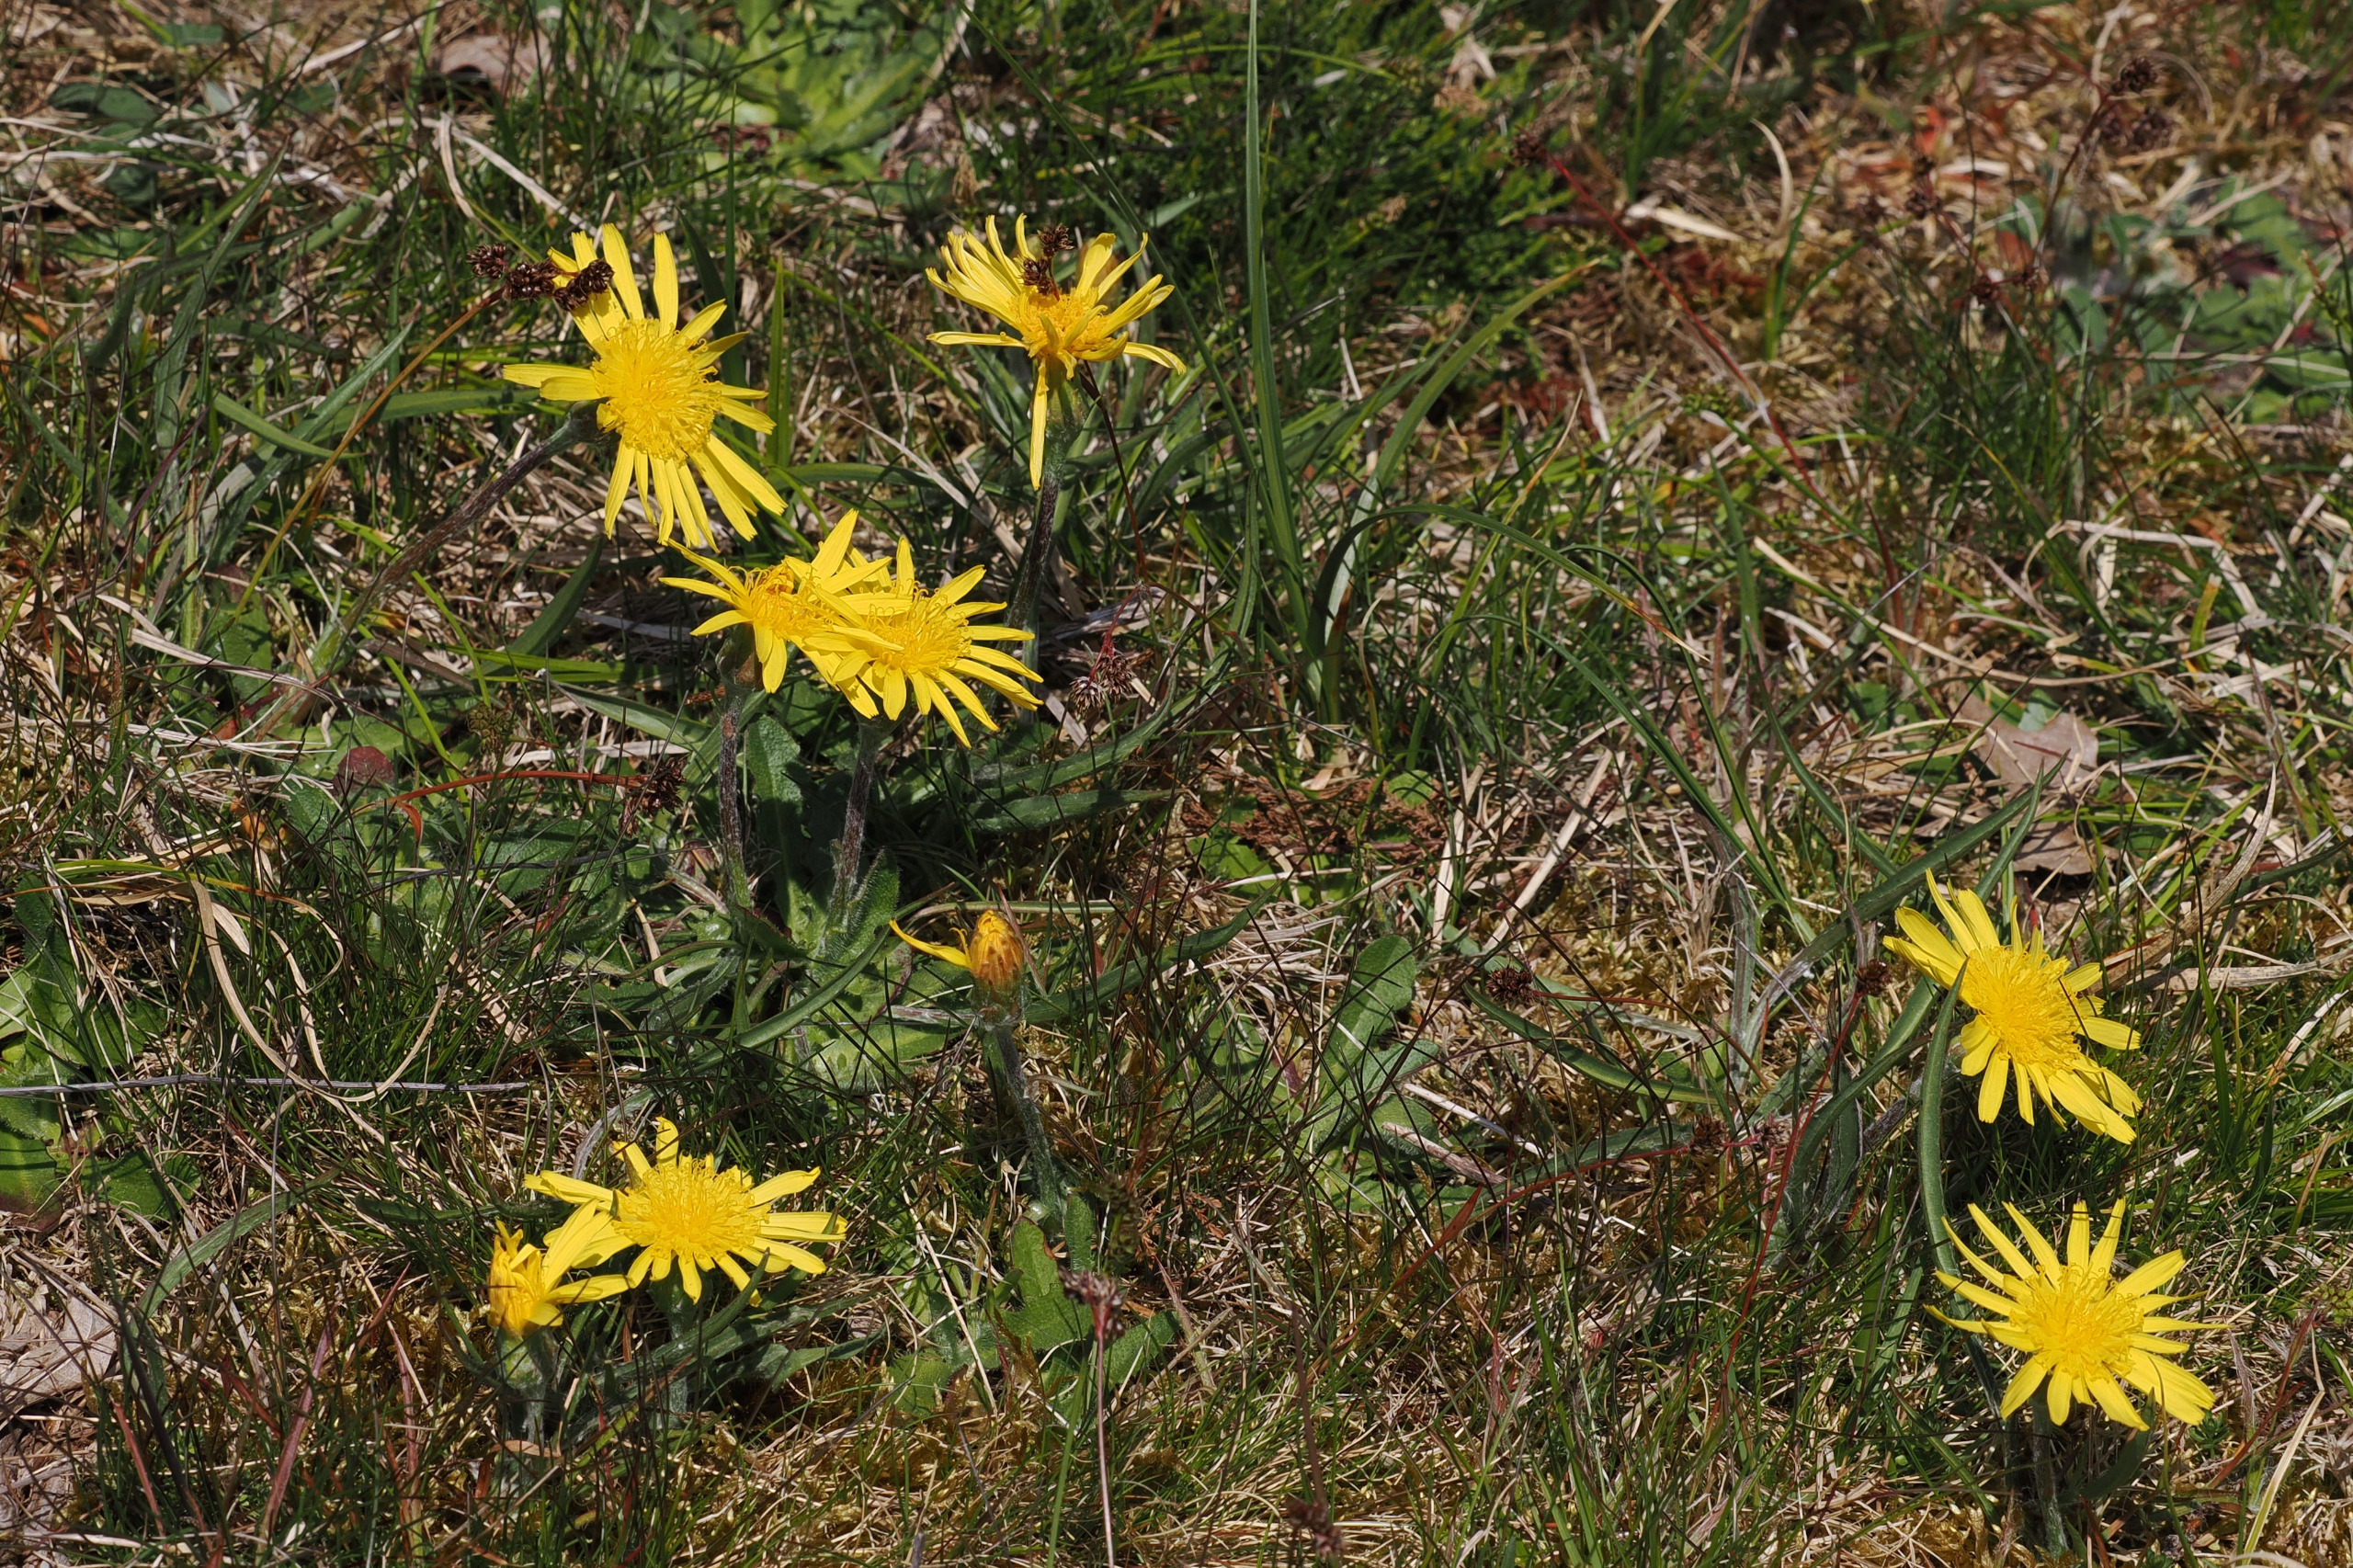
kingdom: Plantae
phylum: Tracheophyta
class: Magnoliopsida
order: Asterales
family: Asteraceae
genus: Scorzonera
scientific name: Scorzonera humilis
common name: Lav skorsoner
